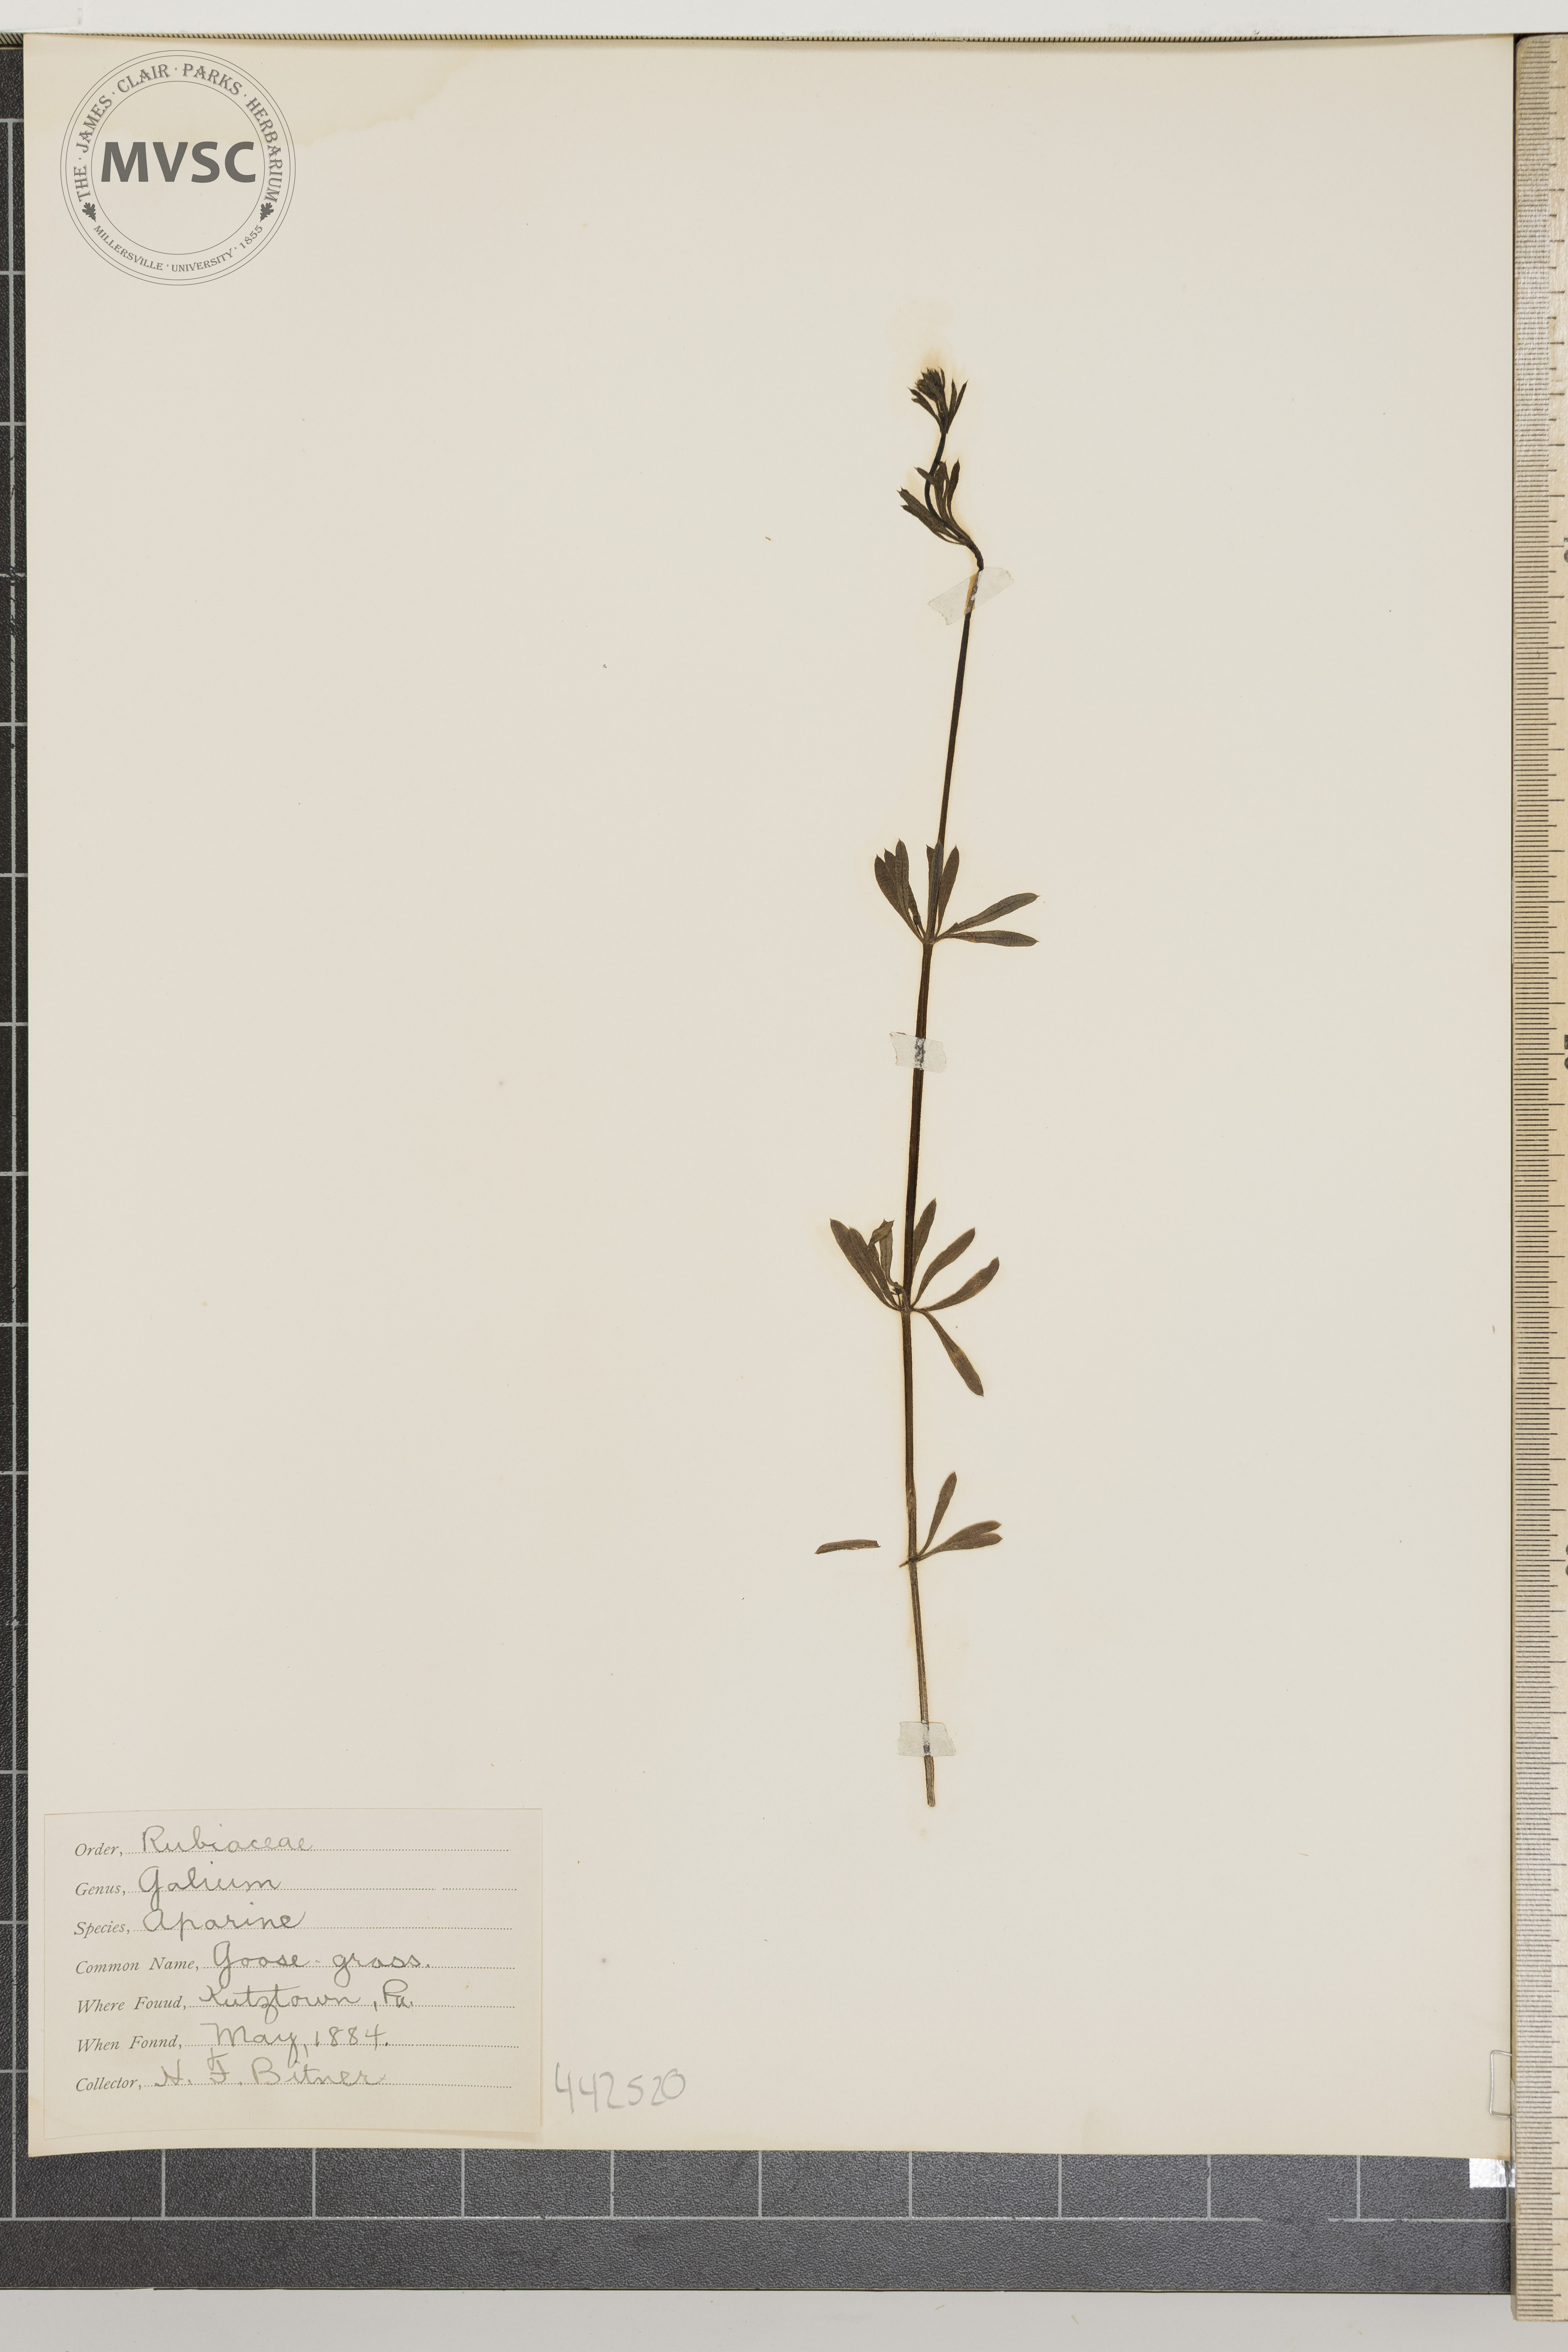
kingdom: Plantae
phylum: Tracheophyta
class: Magnoliopsida
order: Gentianales
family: Rubiaceae
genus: Galium
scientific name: Galium aparine
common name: Goosegrass
